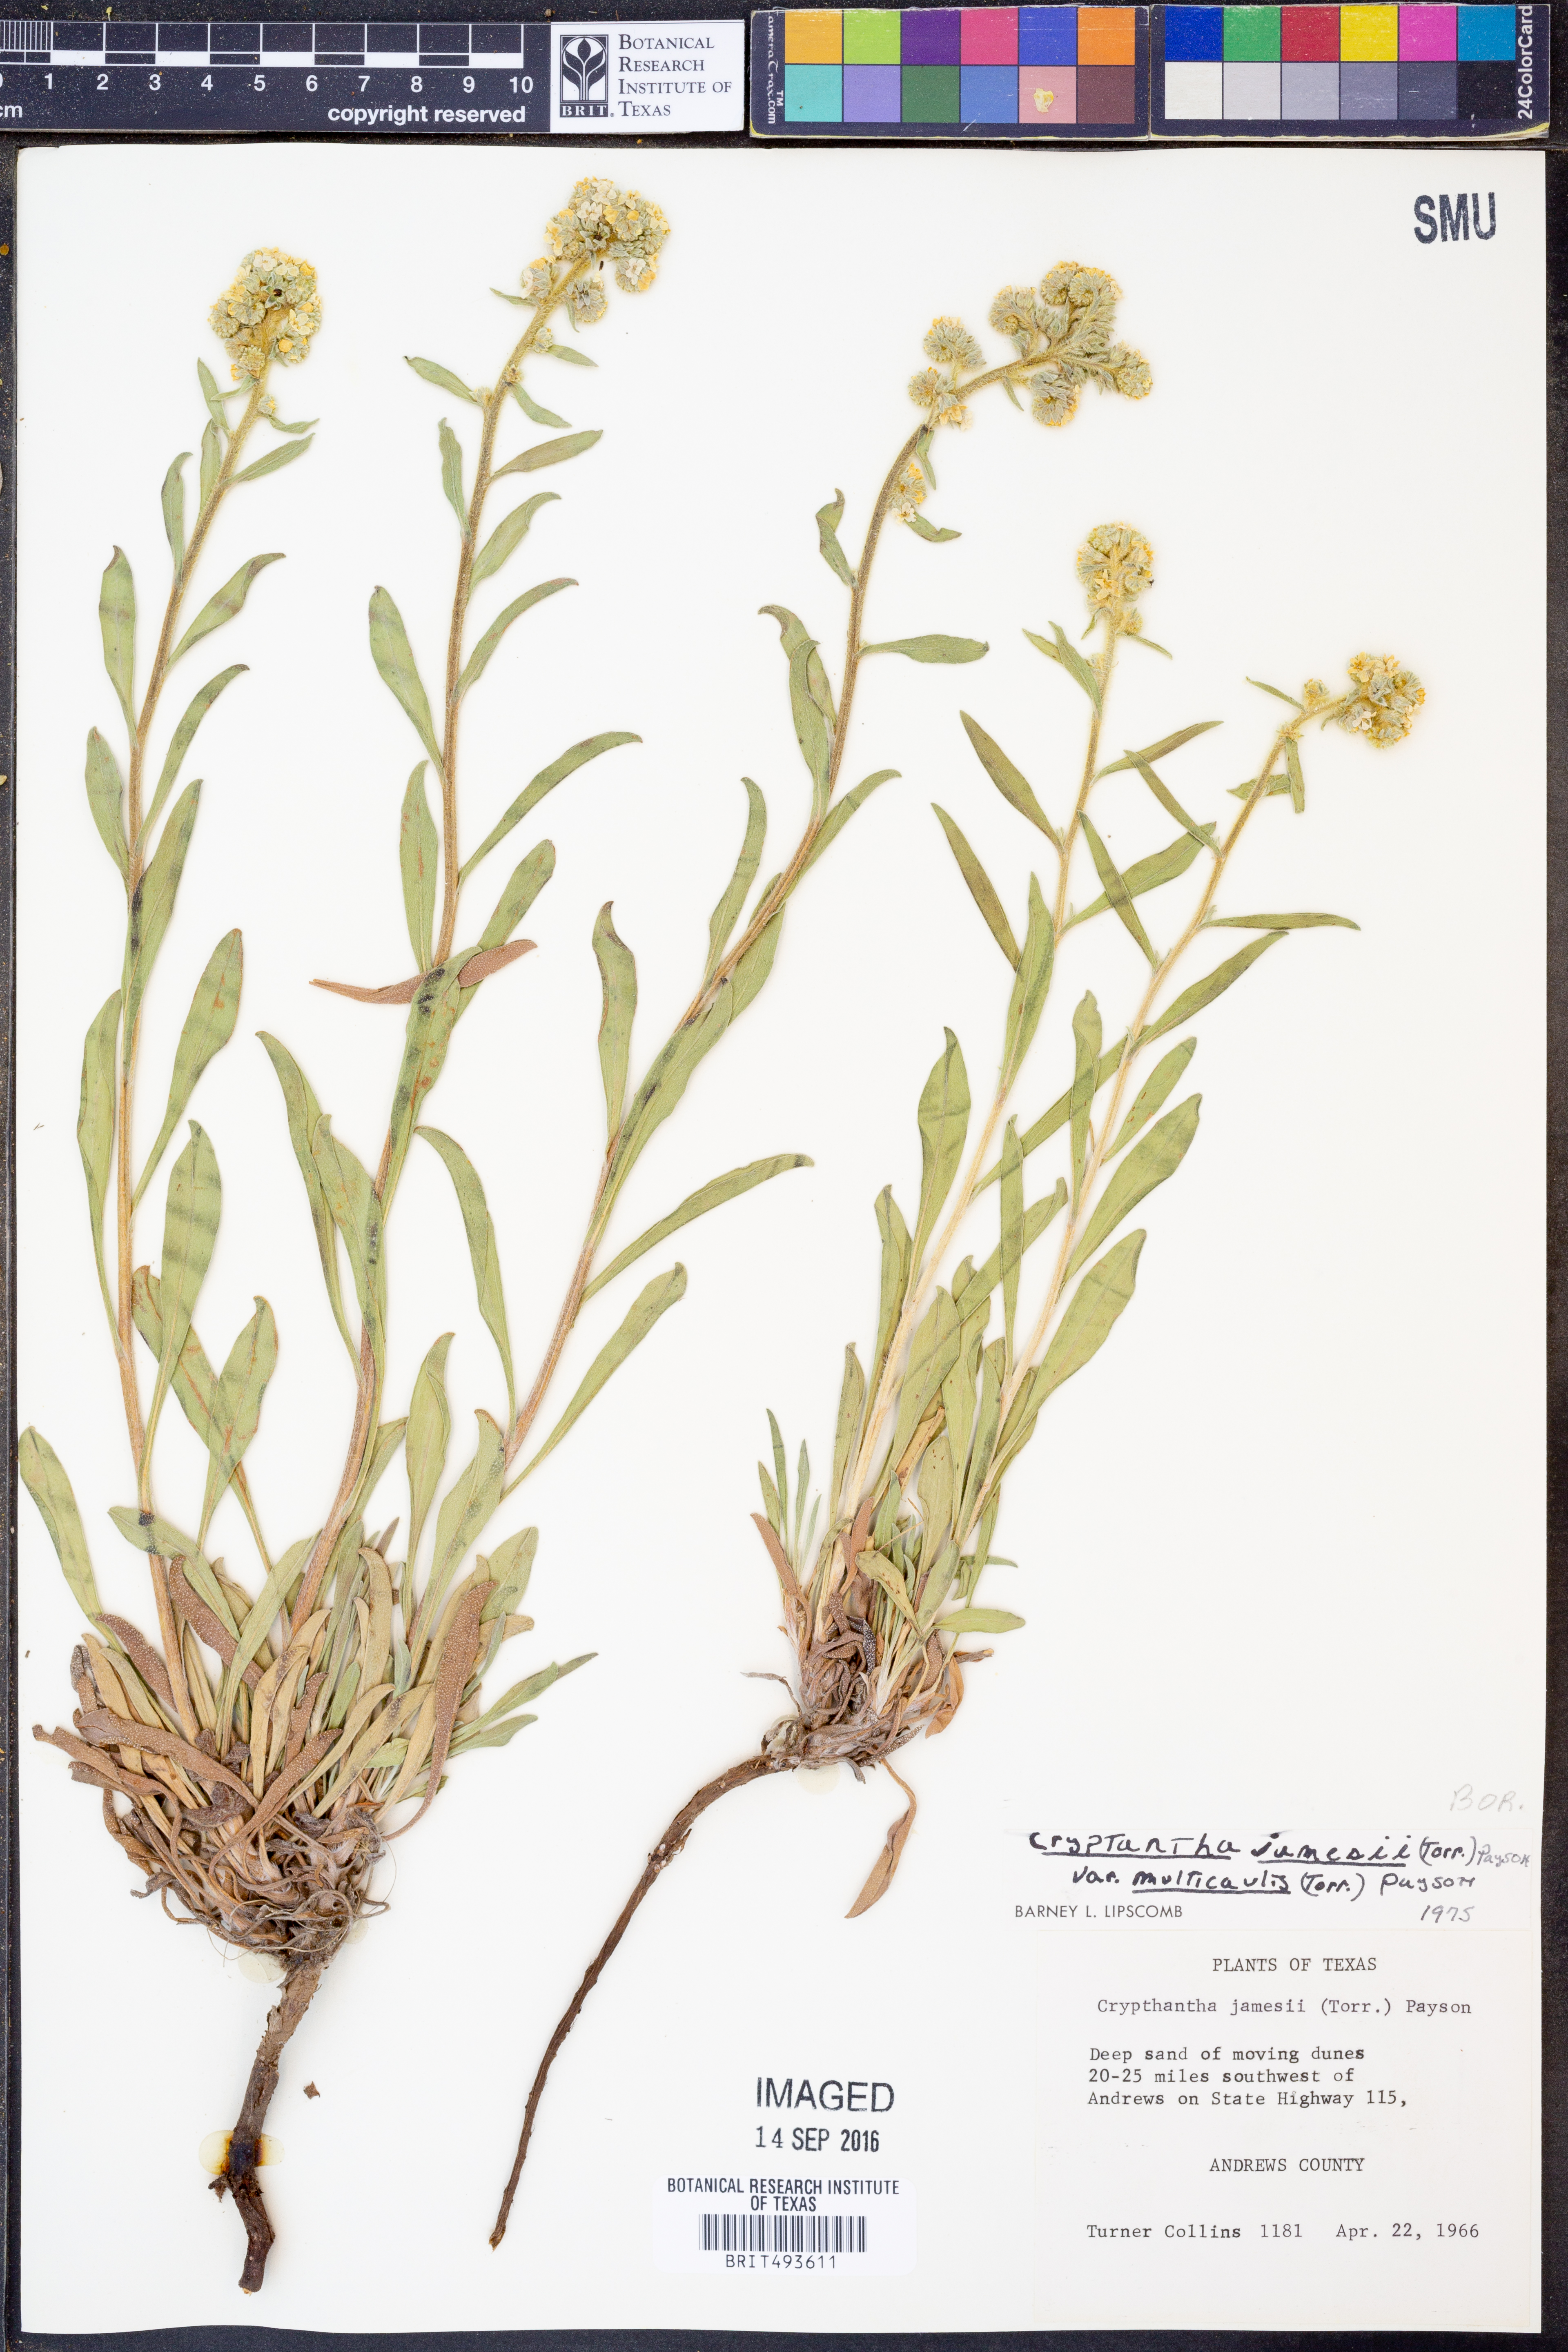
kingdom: Plantae
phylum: Tracheophyta
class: Magnoliopsida
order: Boraginales
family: Boraginaceae
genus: Oreocarya
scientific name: Oreocarya suffruticosa
